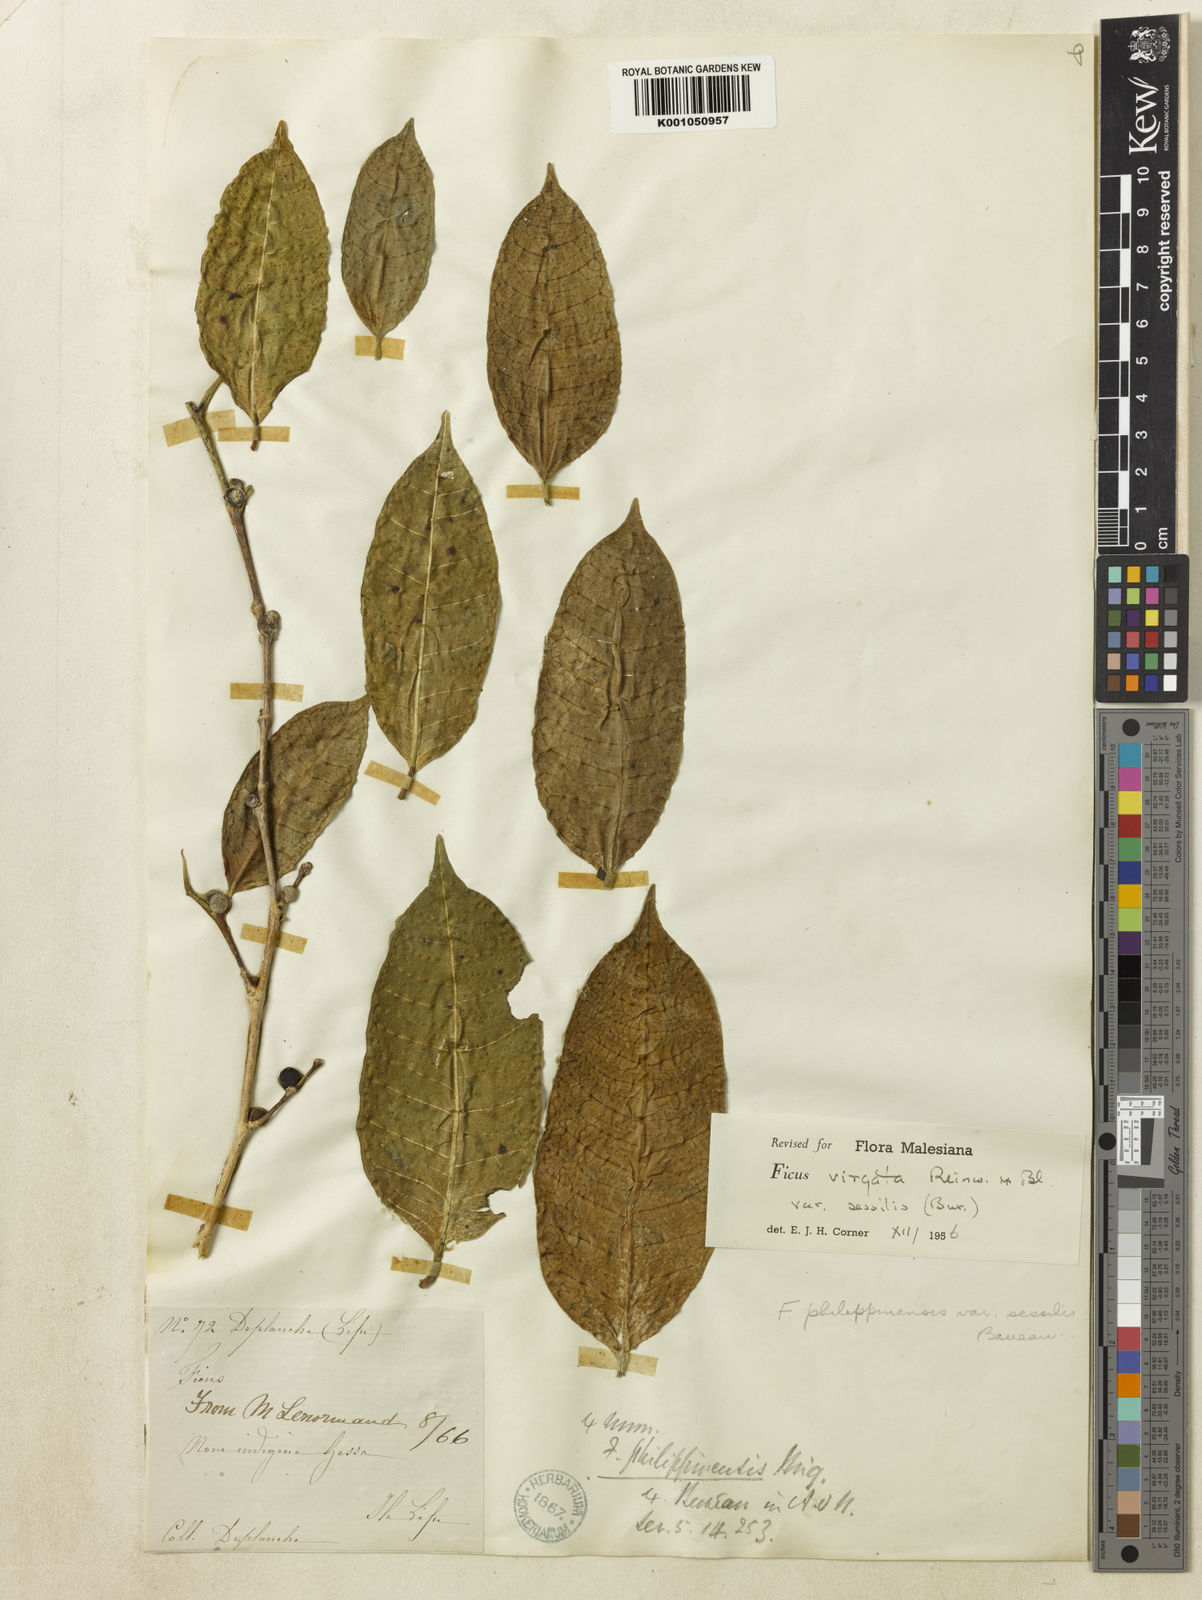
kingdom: Plantae
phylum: Tracheophyta
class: Magnoliopsida
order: Rosales
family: Moraceae
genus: Ficus
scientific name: Ficus virgata
